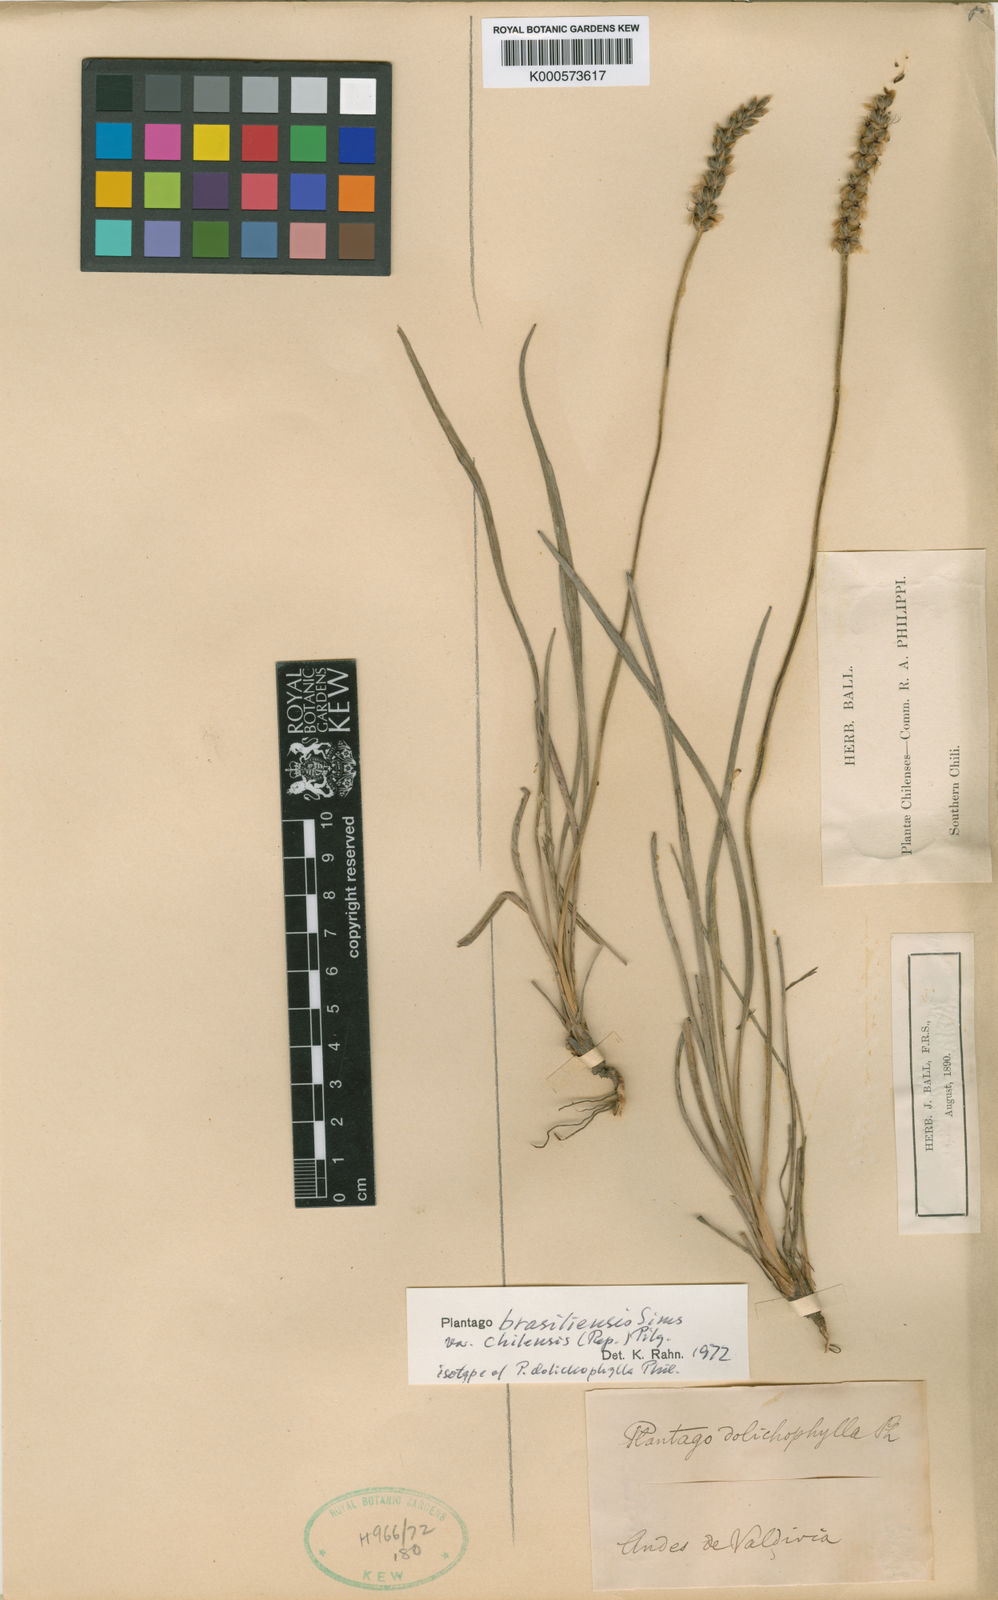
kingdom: Plantae
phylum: Tracheophyta
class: Magnoliopsida
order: Lamiales
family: Plantaginaceae
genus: Plantago
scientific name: Plantago brasiliensis
